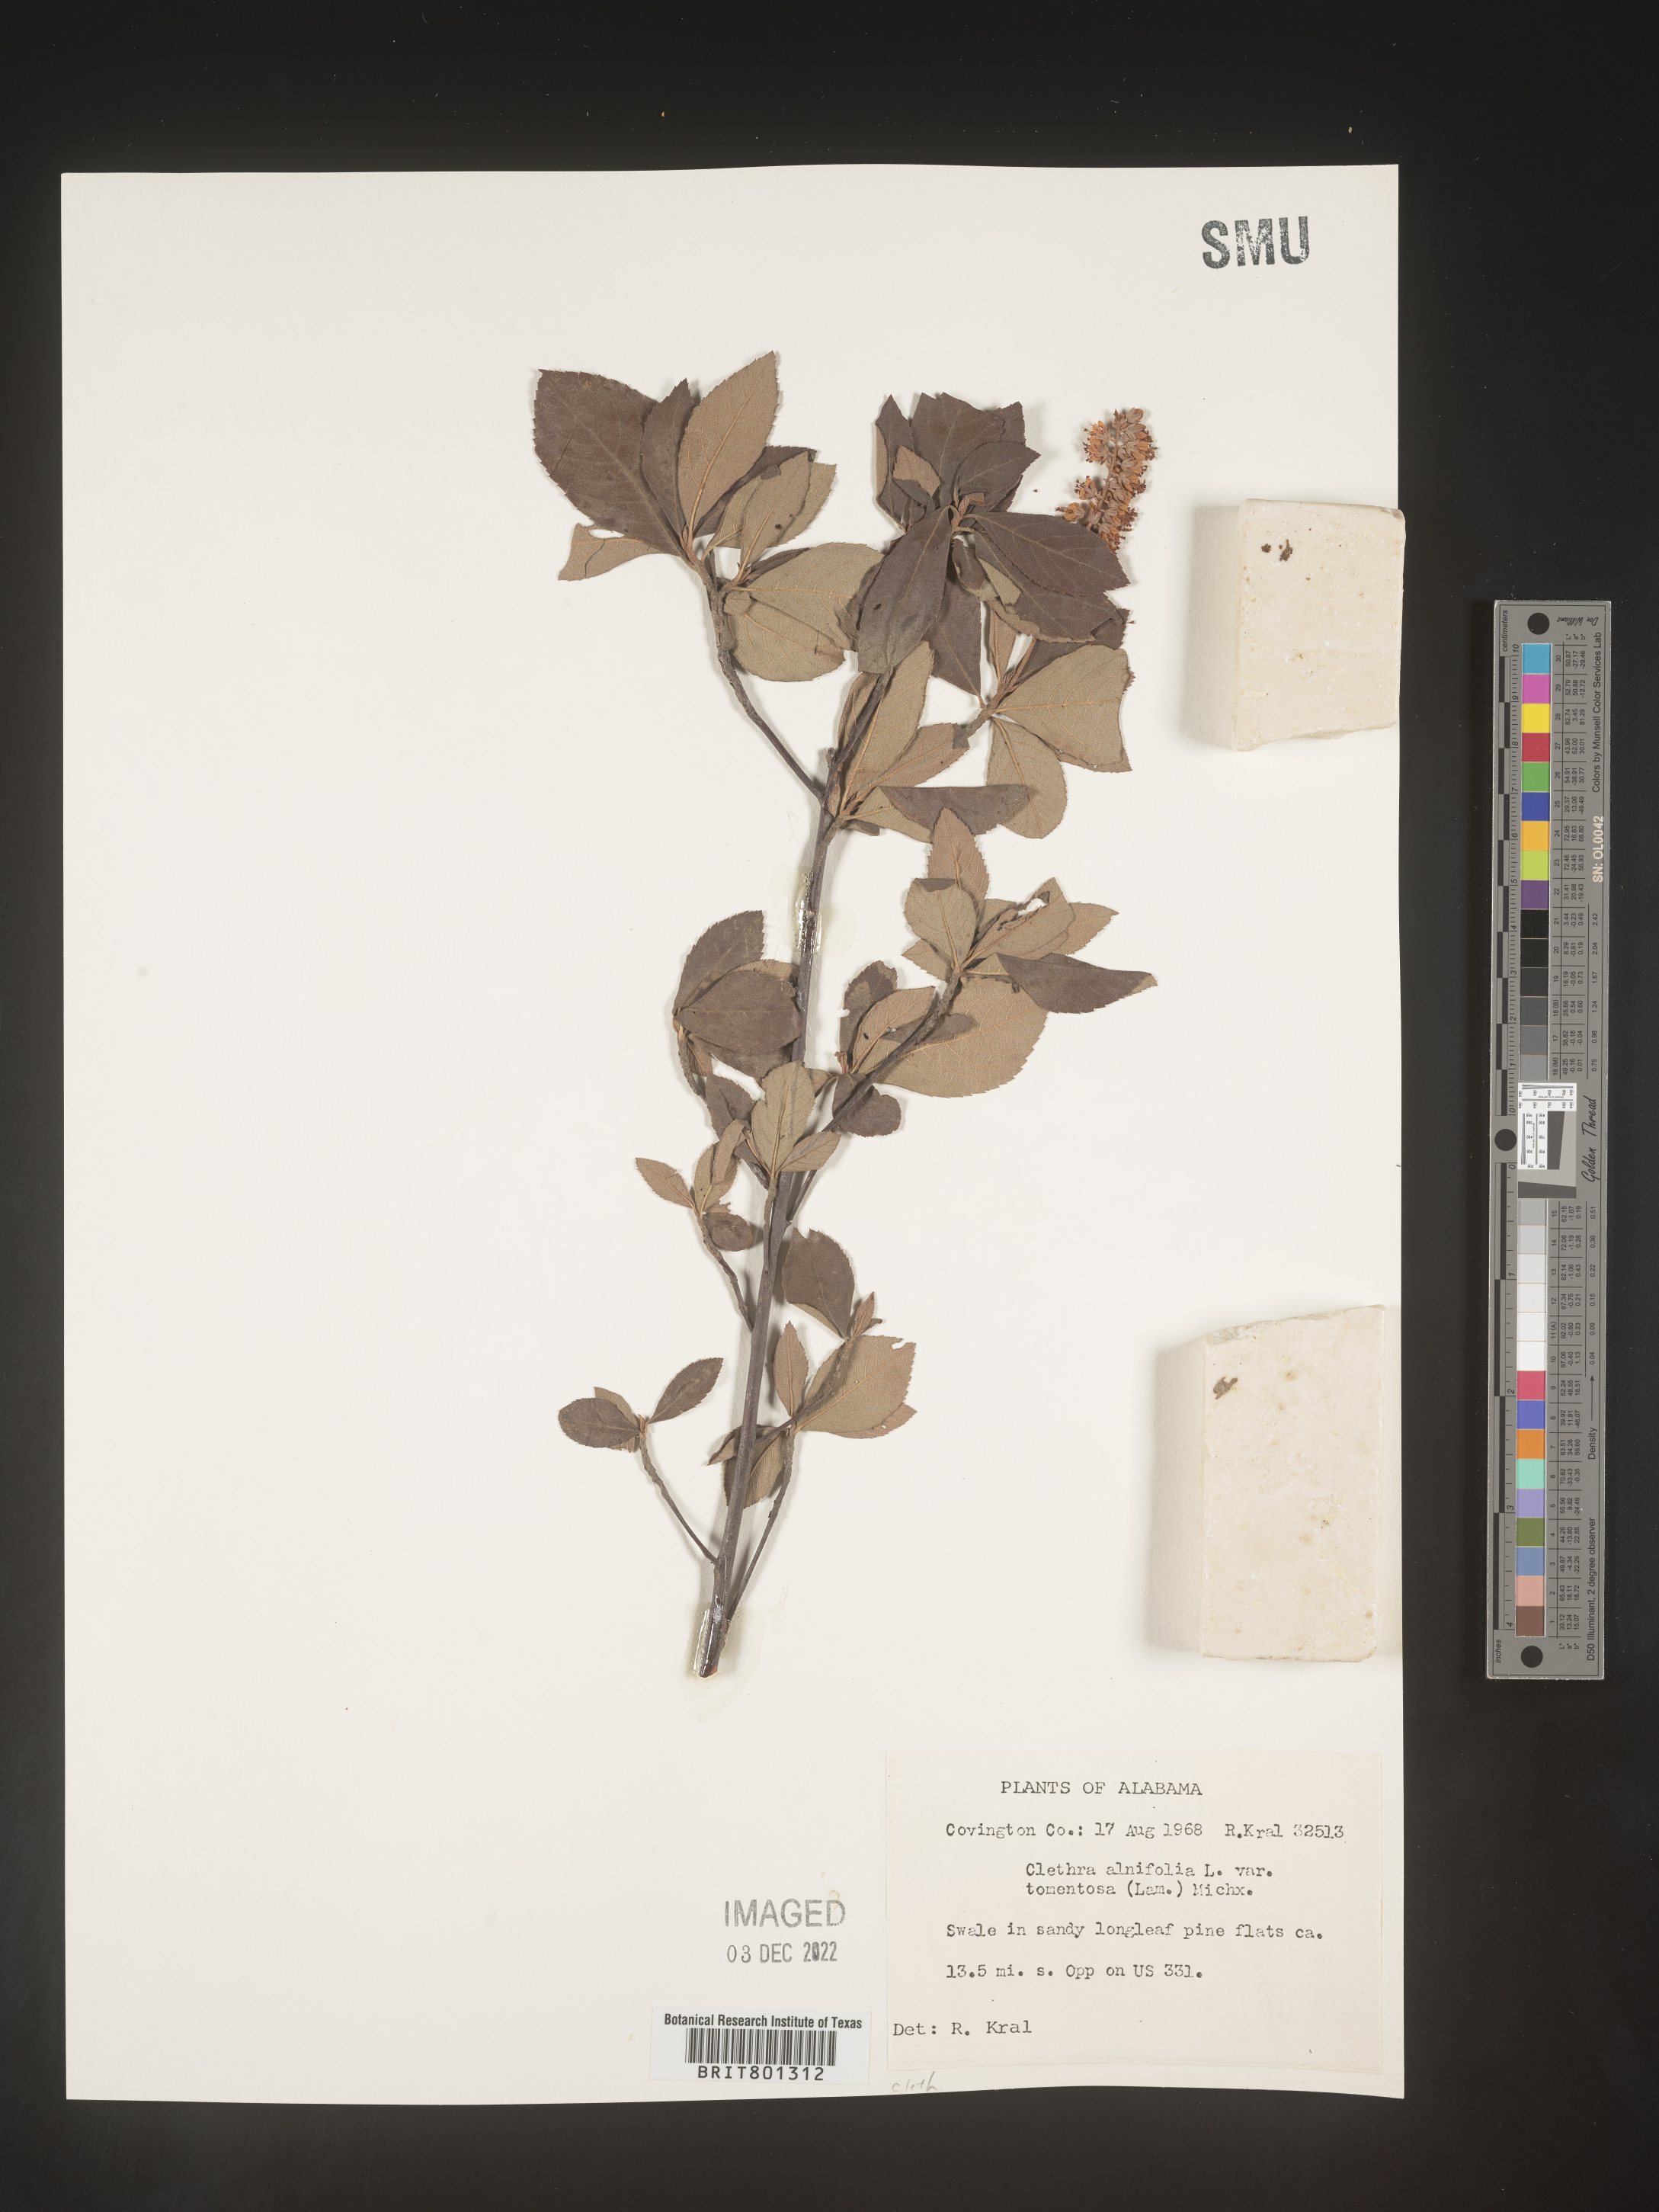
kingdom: Plantae
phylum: Tracheophyta
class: Magnoliopsida
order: Ericales
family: Clethraceae
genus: Clethra
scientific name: Clethra alnifolia
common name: Sweet pepperbush
